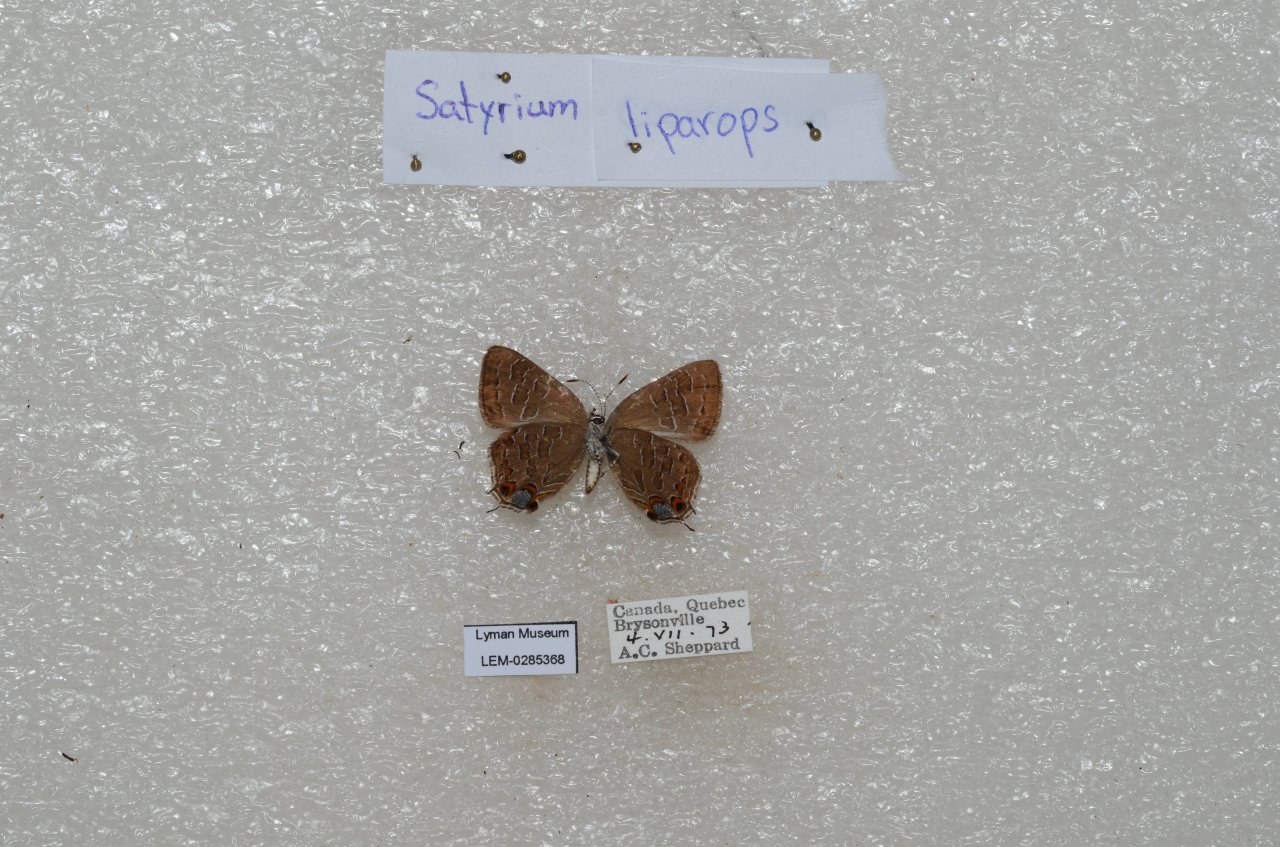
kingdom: Animalia
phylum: Arthropoda
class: Insecta
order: Lepidoptera
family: Lycaenidae
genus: Satyrium
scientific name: Satyrium liparops
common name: Striped Hairstreak
